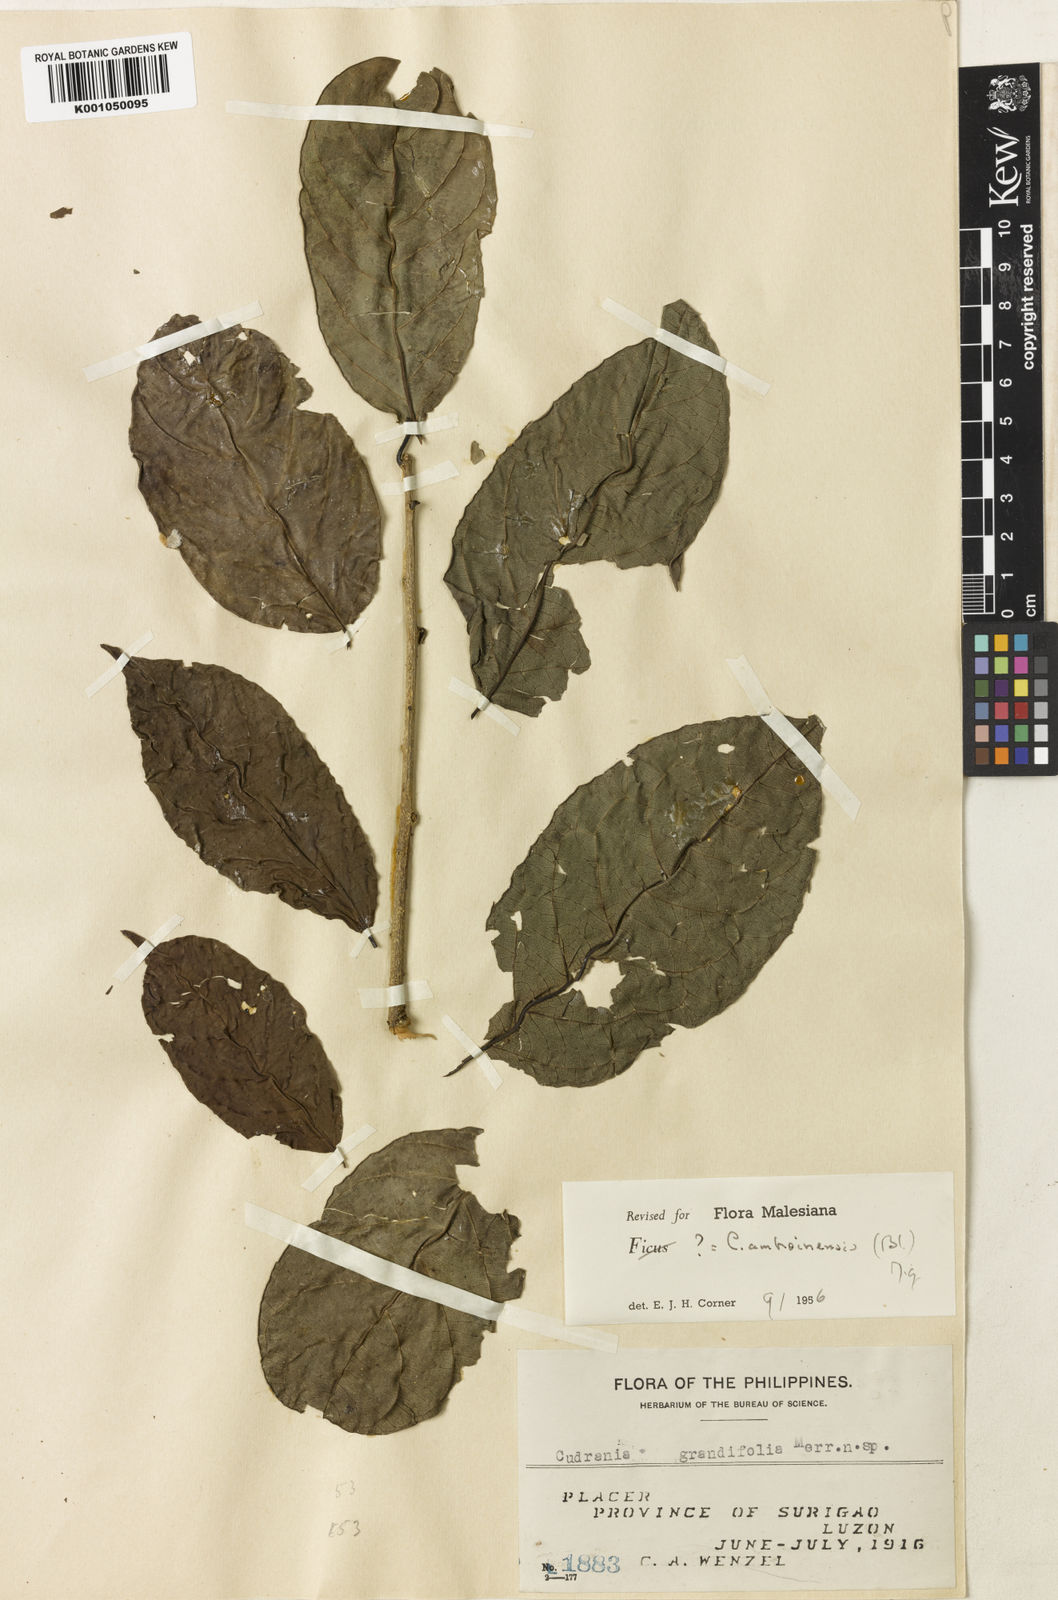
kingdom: Plantae
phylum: Tracheophyta
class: Magnoliopsida
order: Rosales
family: Moraceae
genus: Maclura
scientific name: Maclura cochinchinensis
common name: Cockspurthorn
